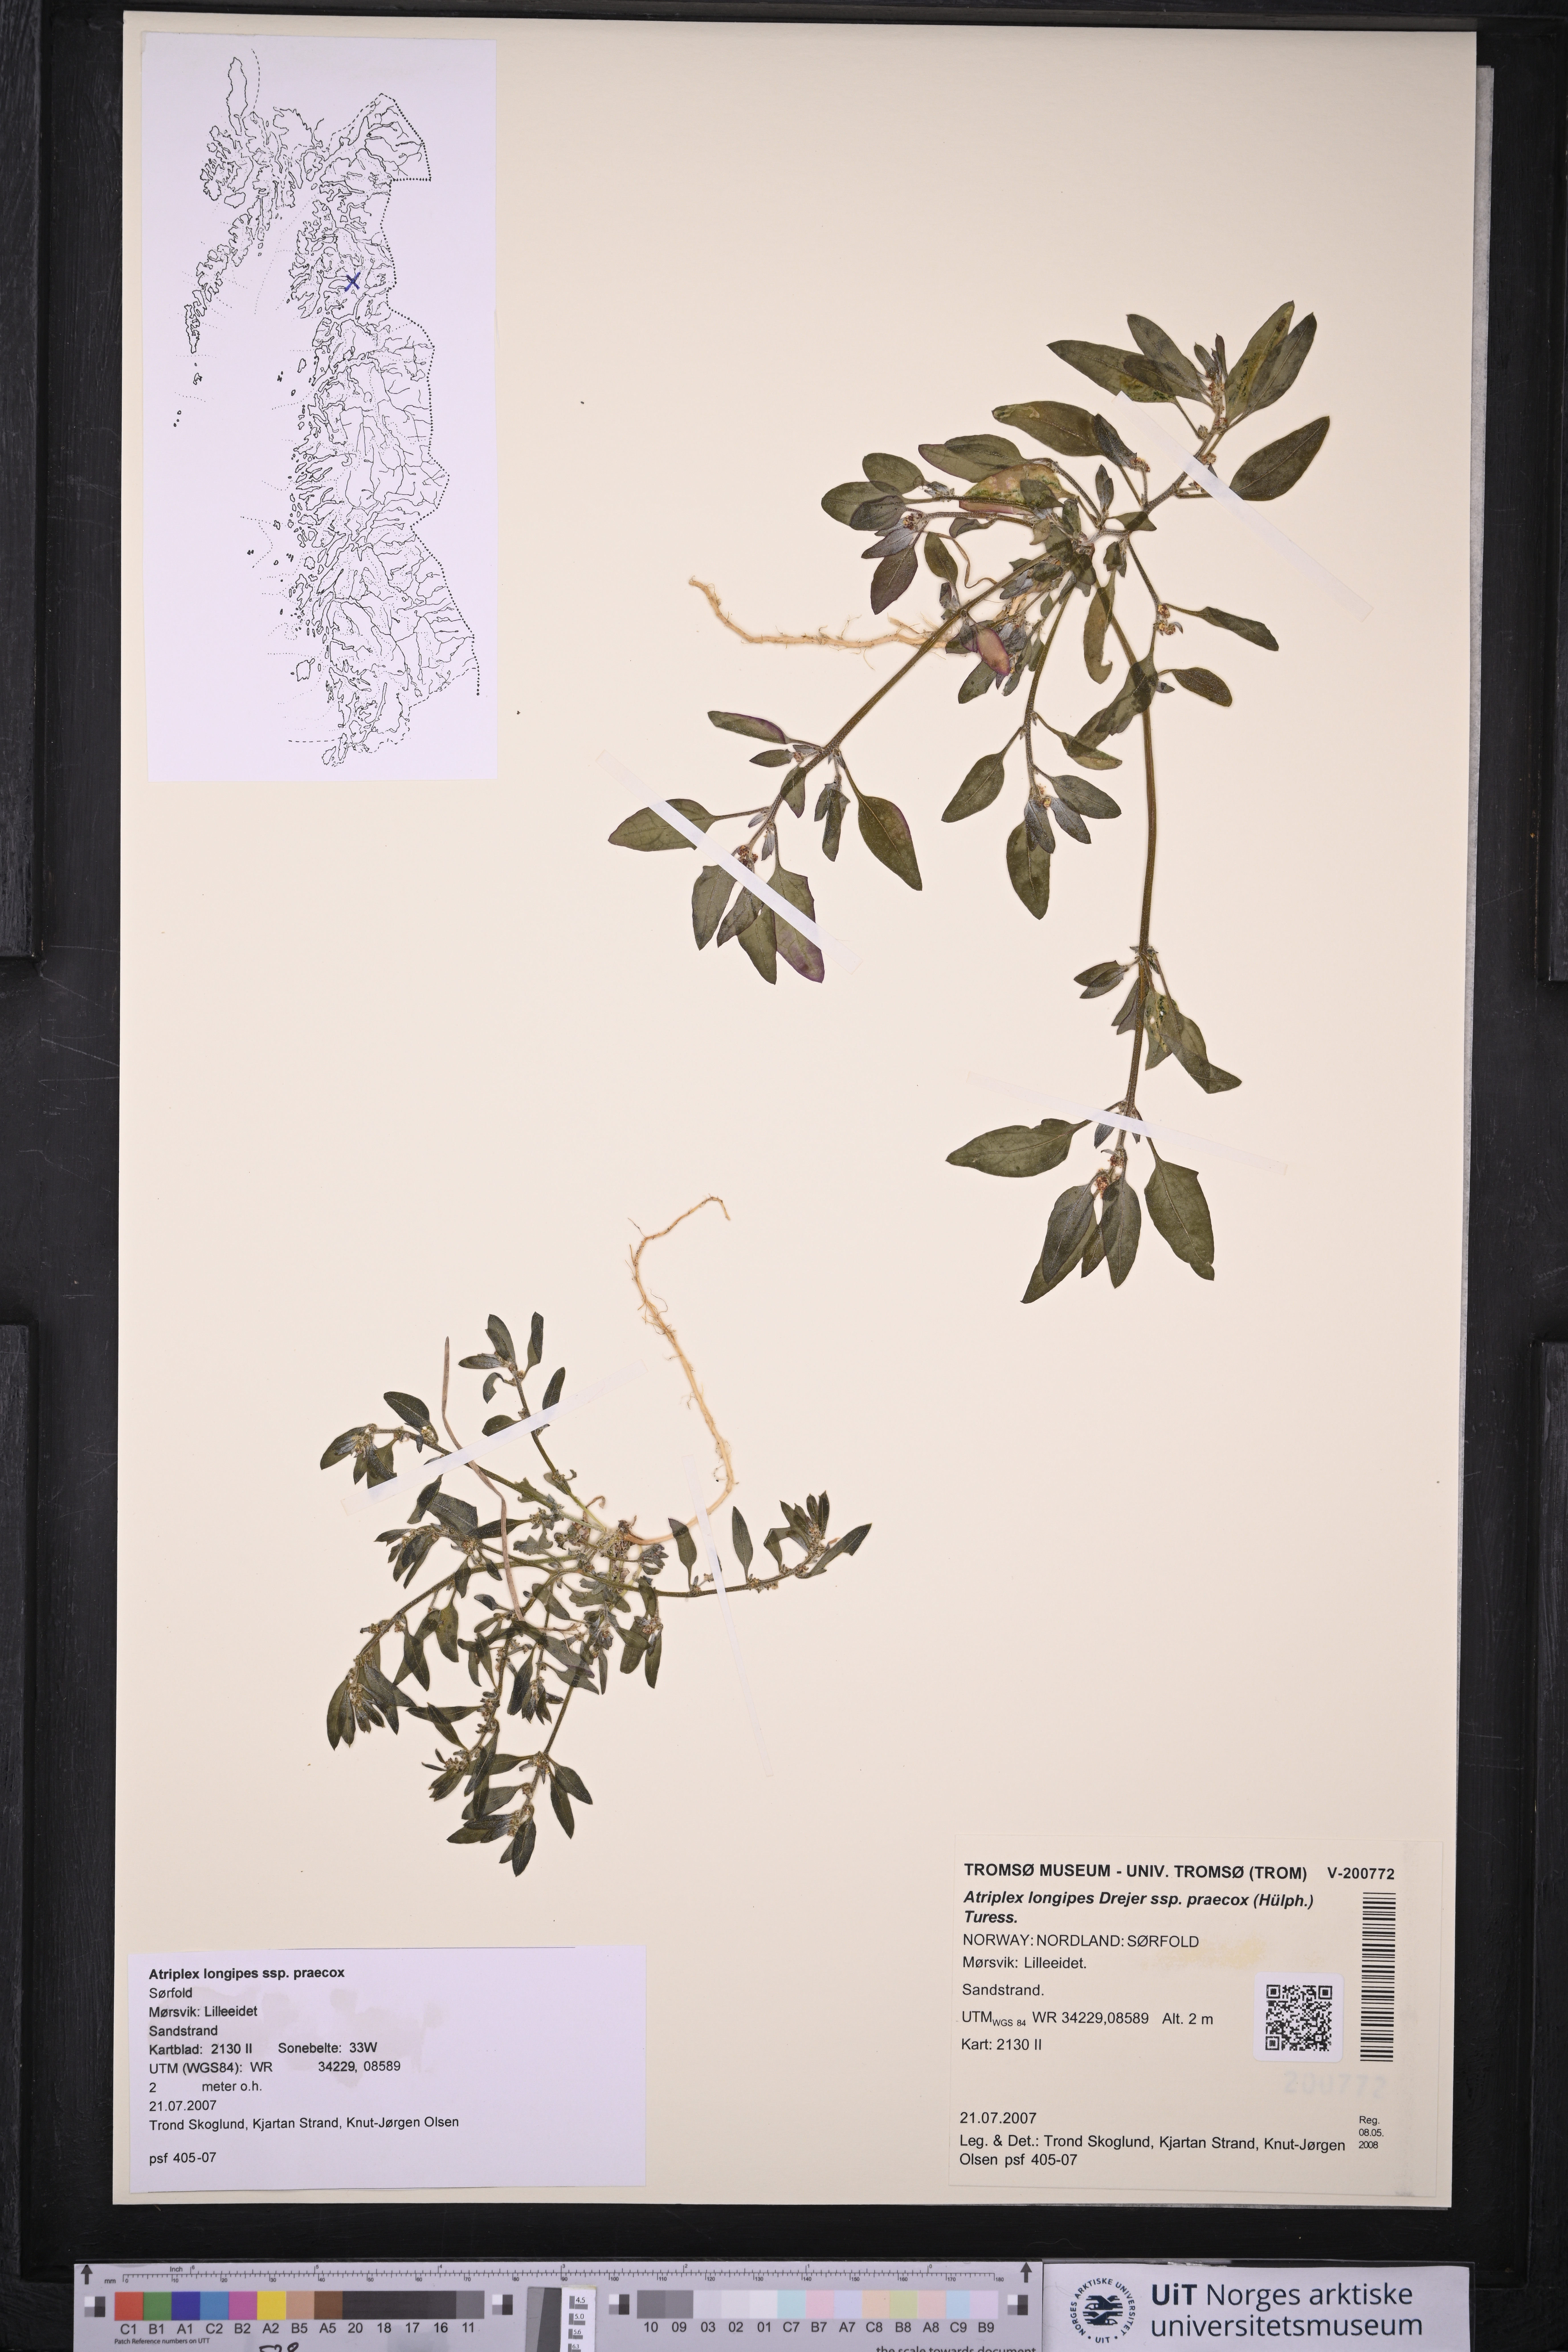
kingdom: Plantae
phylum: Tracheophyta
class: Magnoliopsida
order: Caryophyllales
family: Amaranthaceae
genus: Atriplex
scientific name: Atriplex praecox
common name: Early orache
